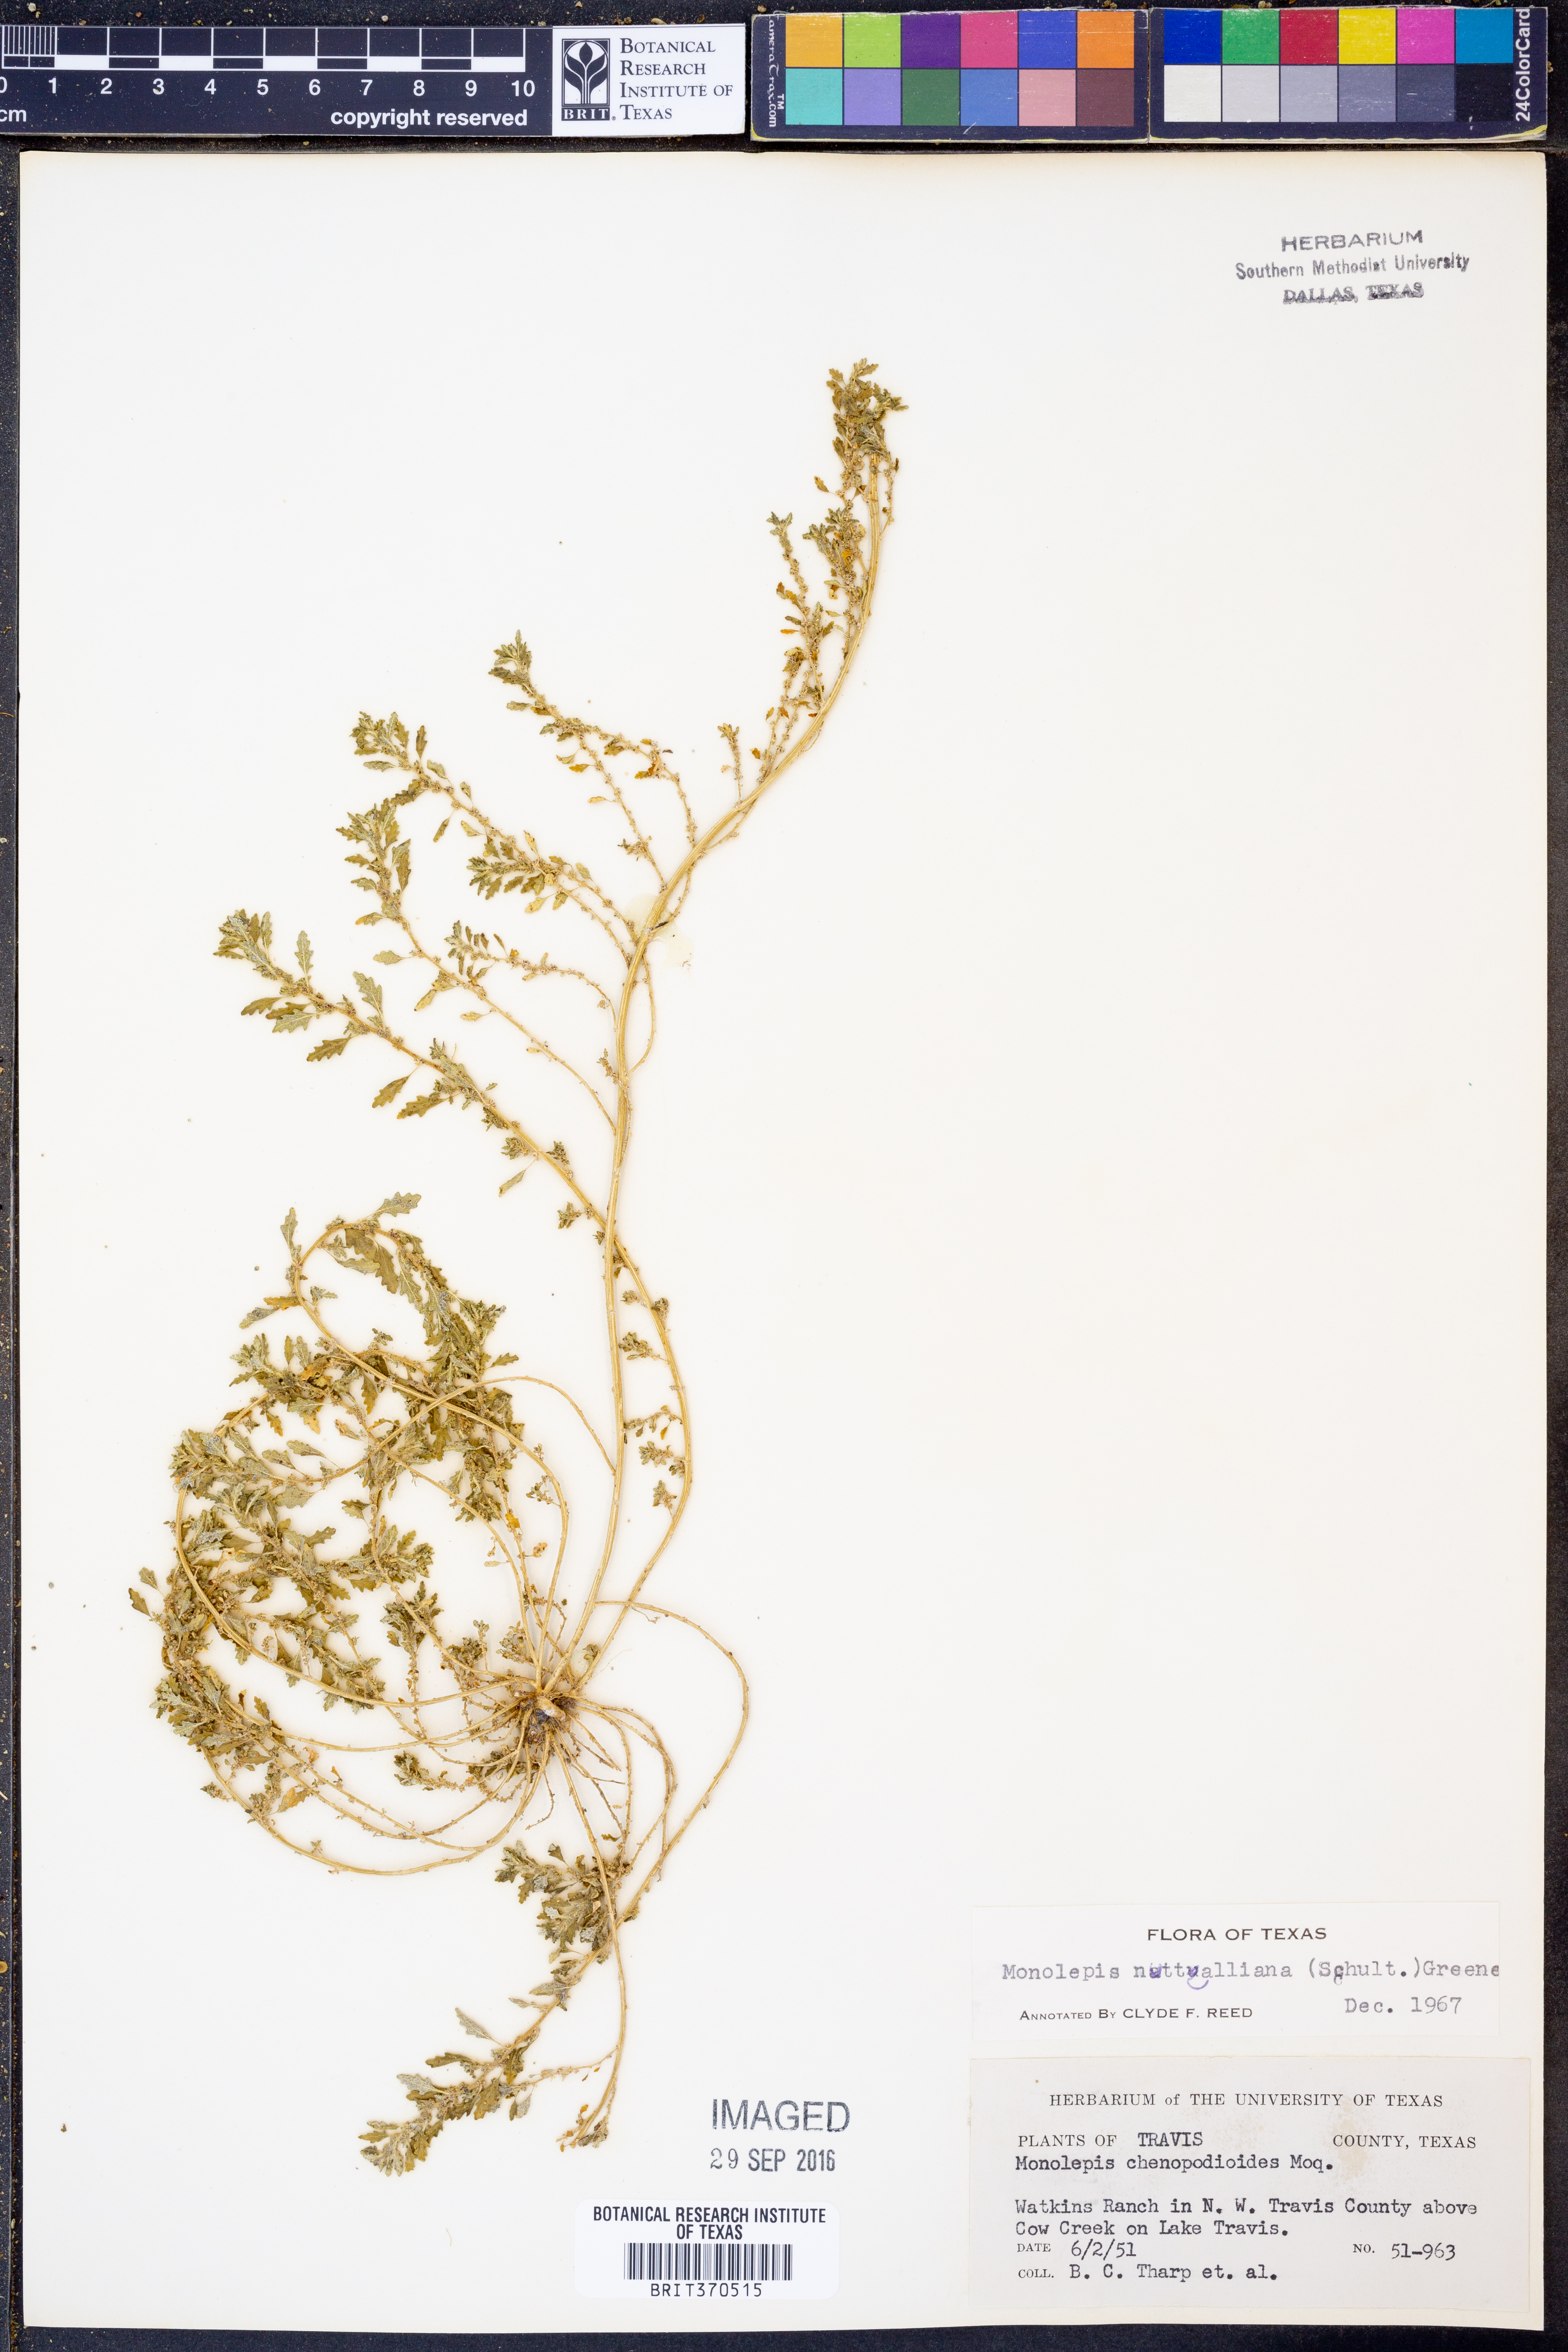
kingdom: Plantae
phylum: Tracheophyta
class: Magnoliopsida
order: Caryophyllales
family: Amaranthaceae
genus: Blitum
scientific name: Blitum nuttallianum
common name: Poverty-weed
